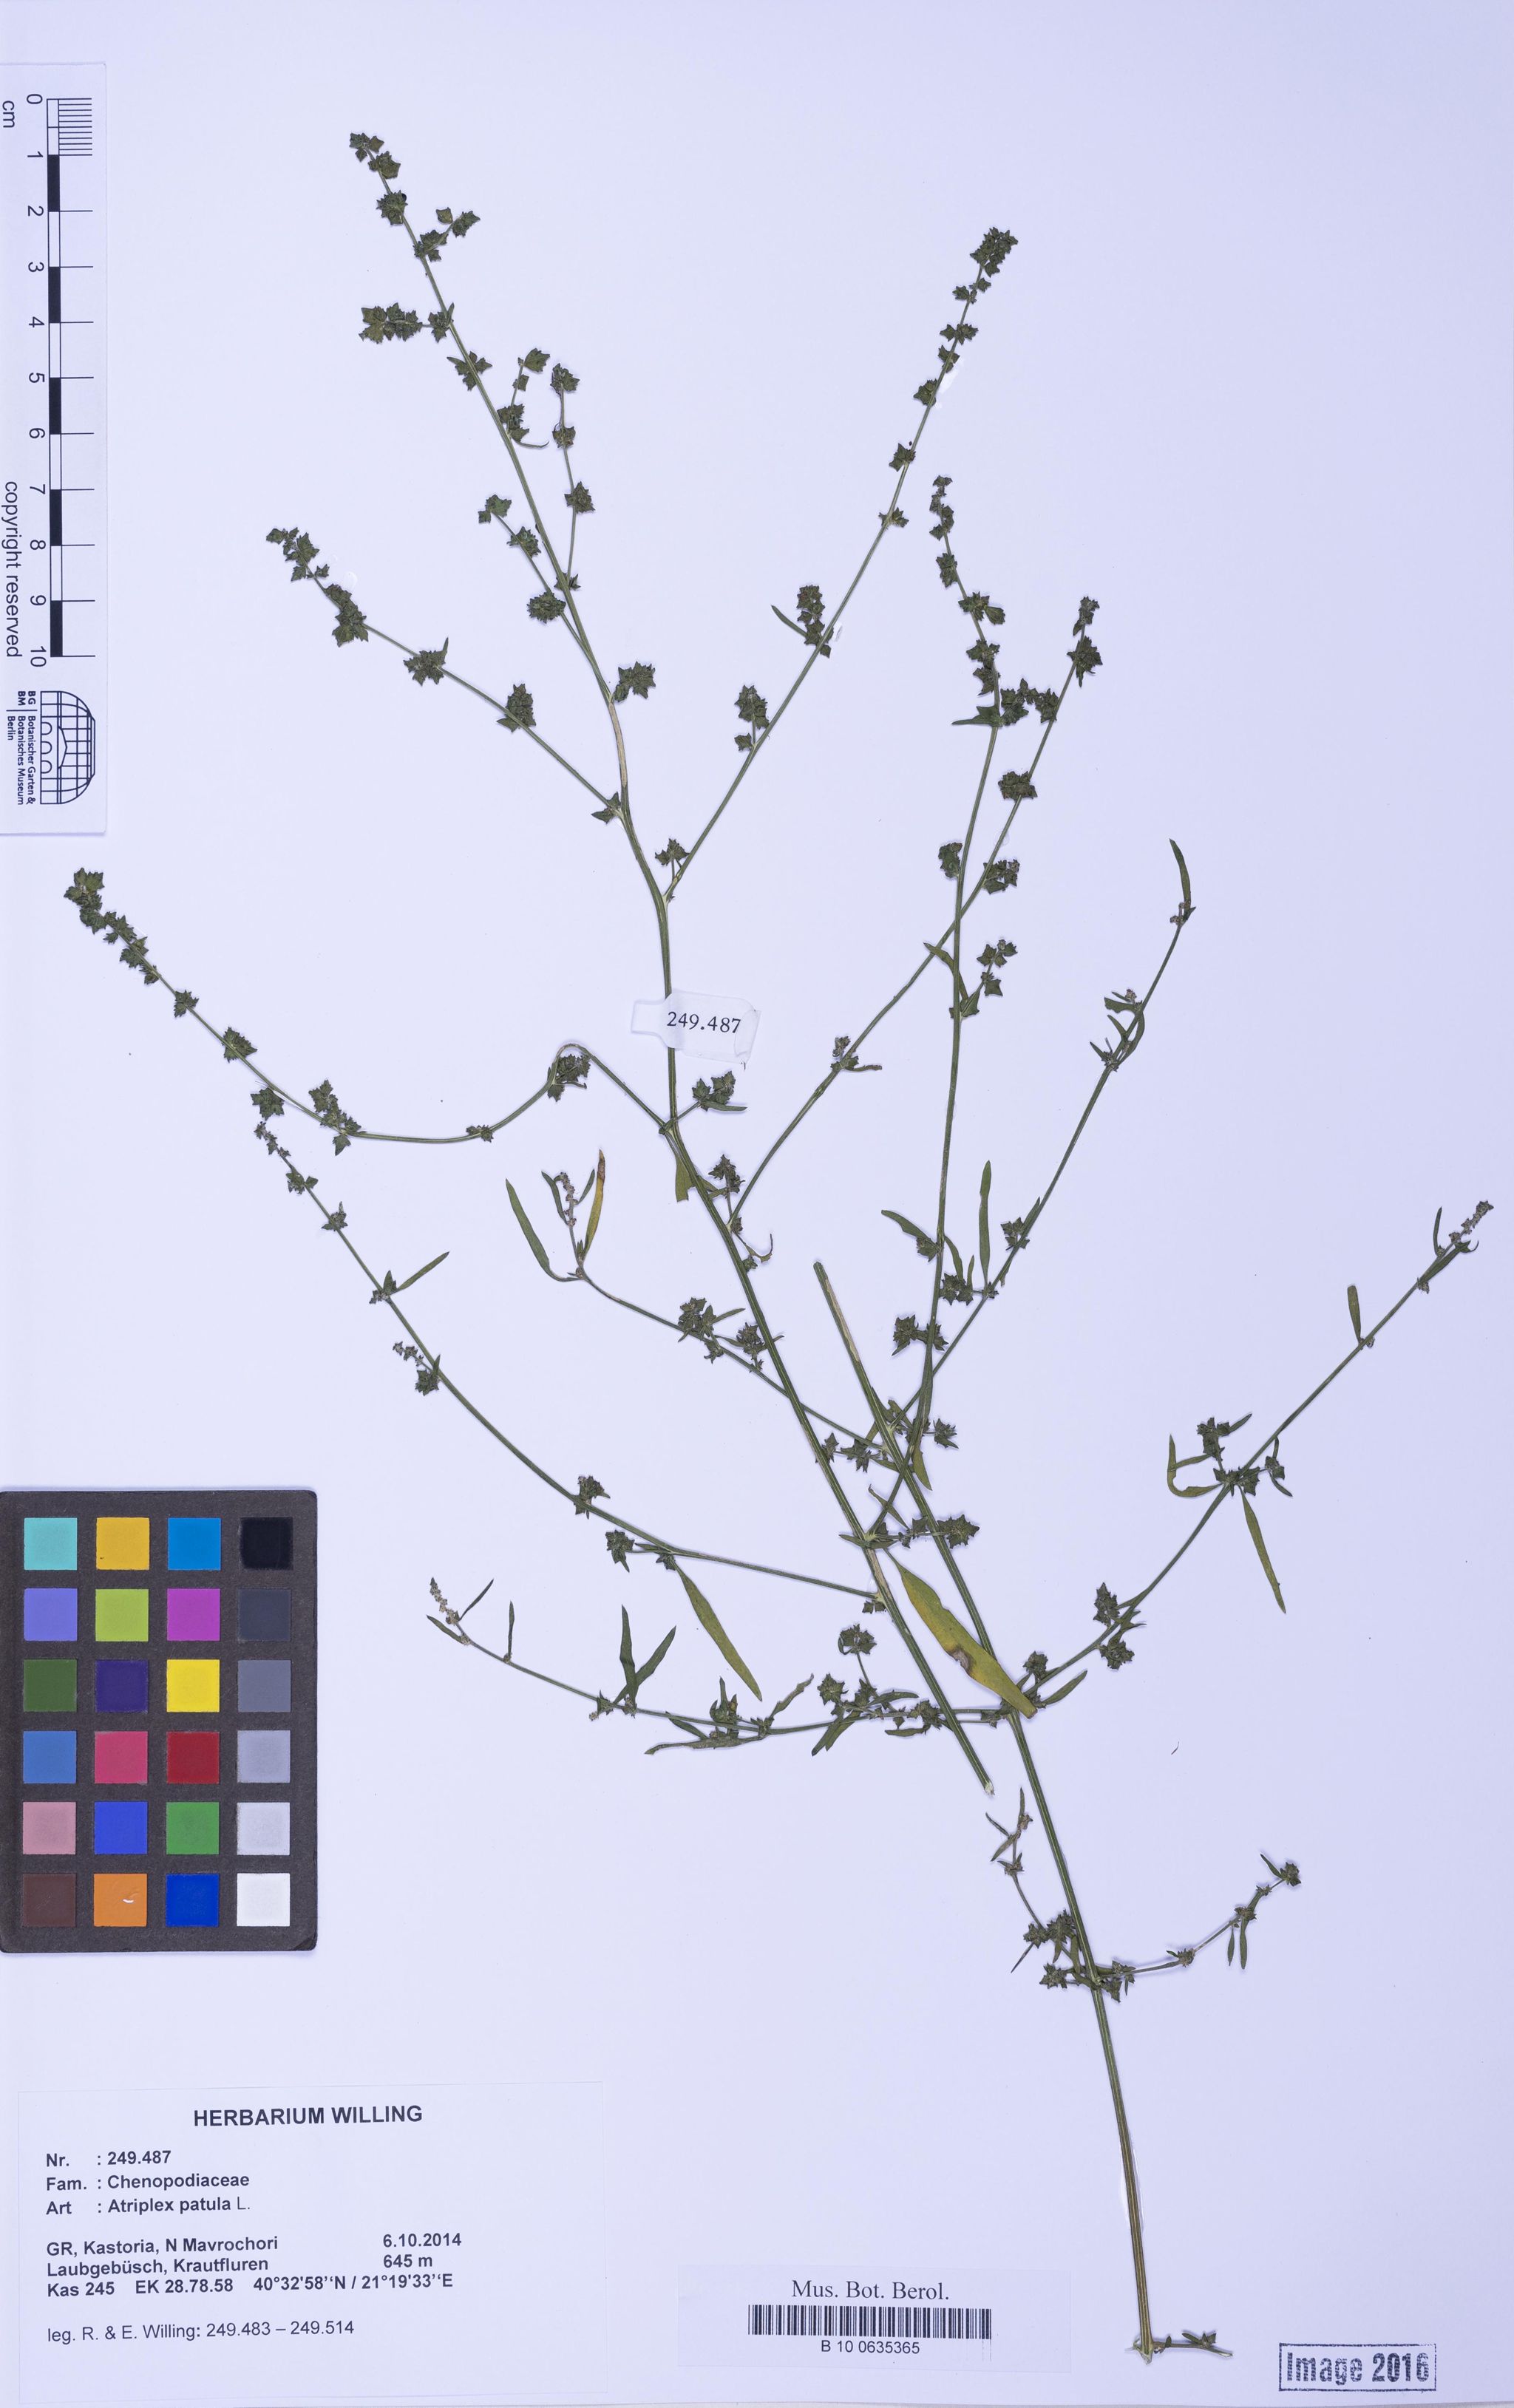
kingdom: Plantae
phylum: Tracheophyta
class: Magnoliopsida
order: Caryophyllales
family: Amaranthaceae
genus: Atriplex
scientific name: Atriplex patula
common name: Common orache
